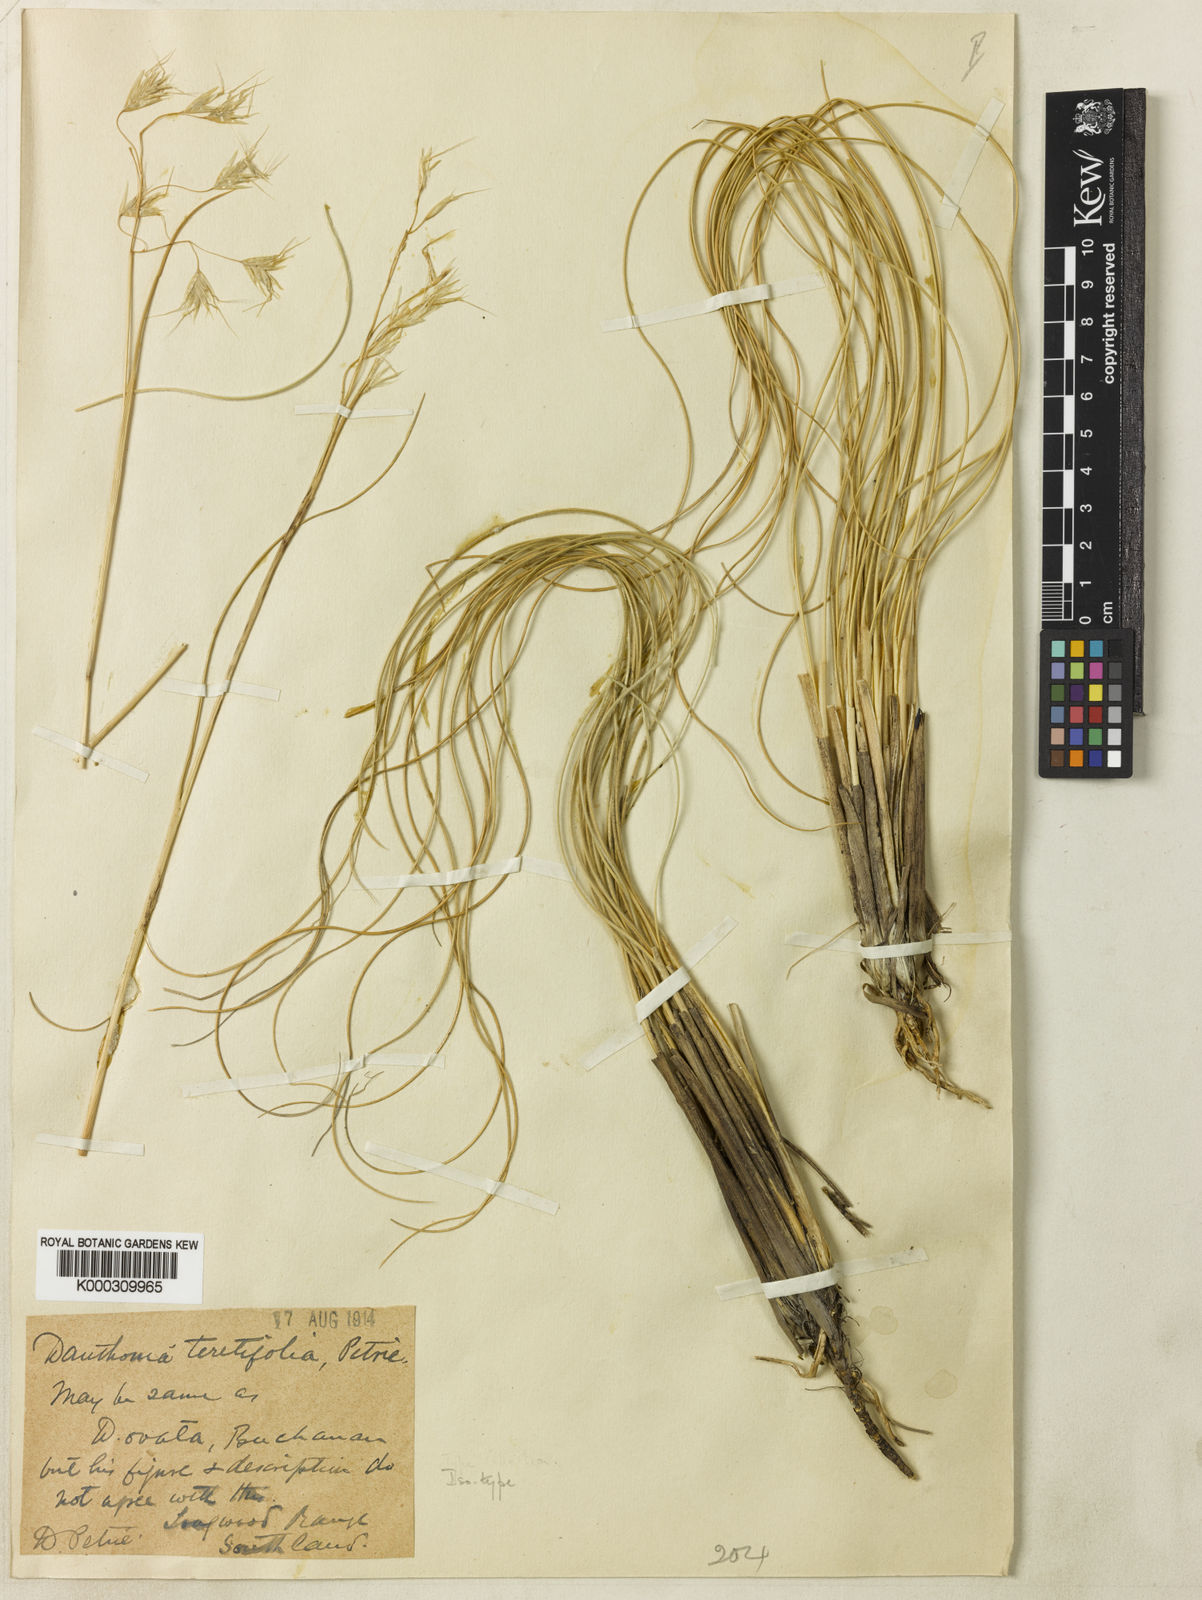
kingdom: Plantae
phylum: Tracheophyta
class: Liliopsida
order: Poales
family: Poaceae
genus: Chionochloa
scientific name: Chionochloa teretifolia
